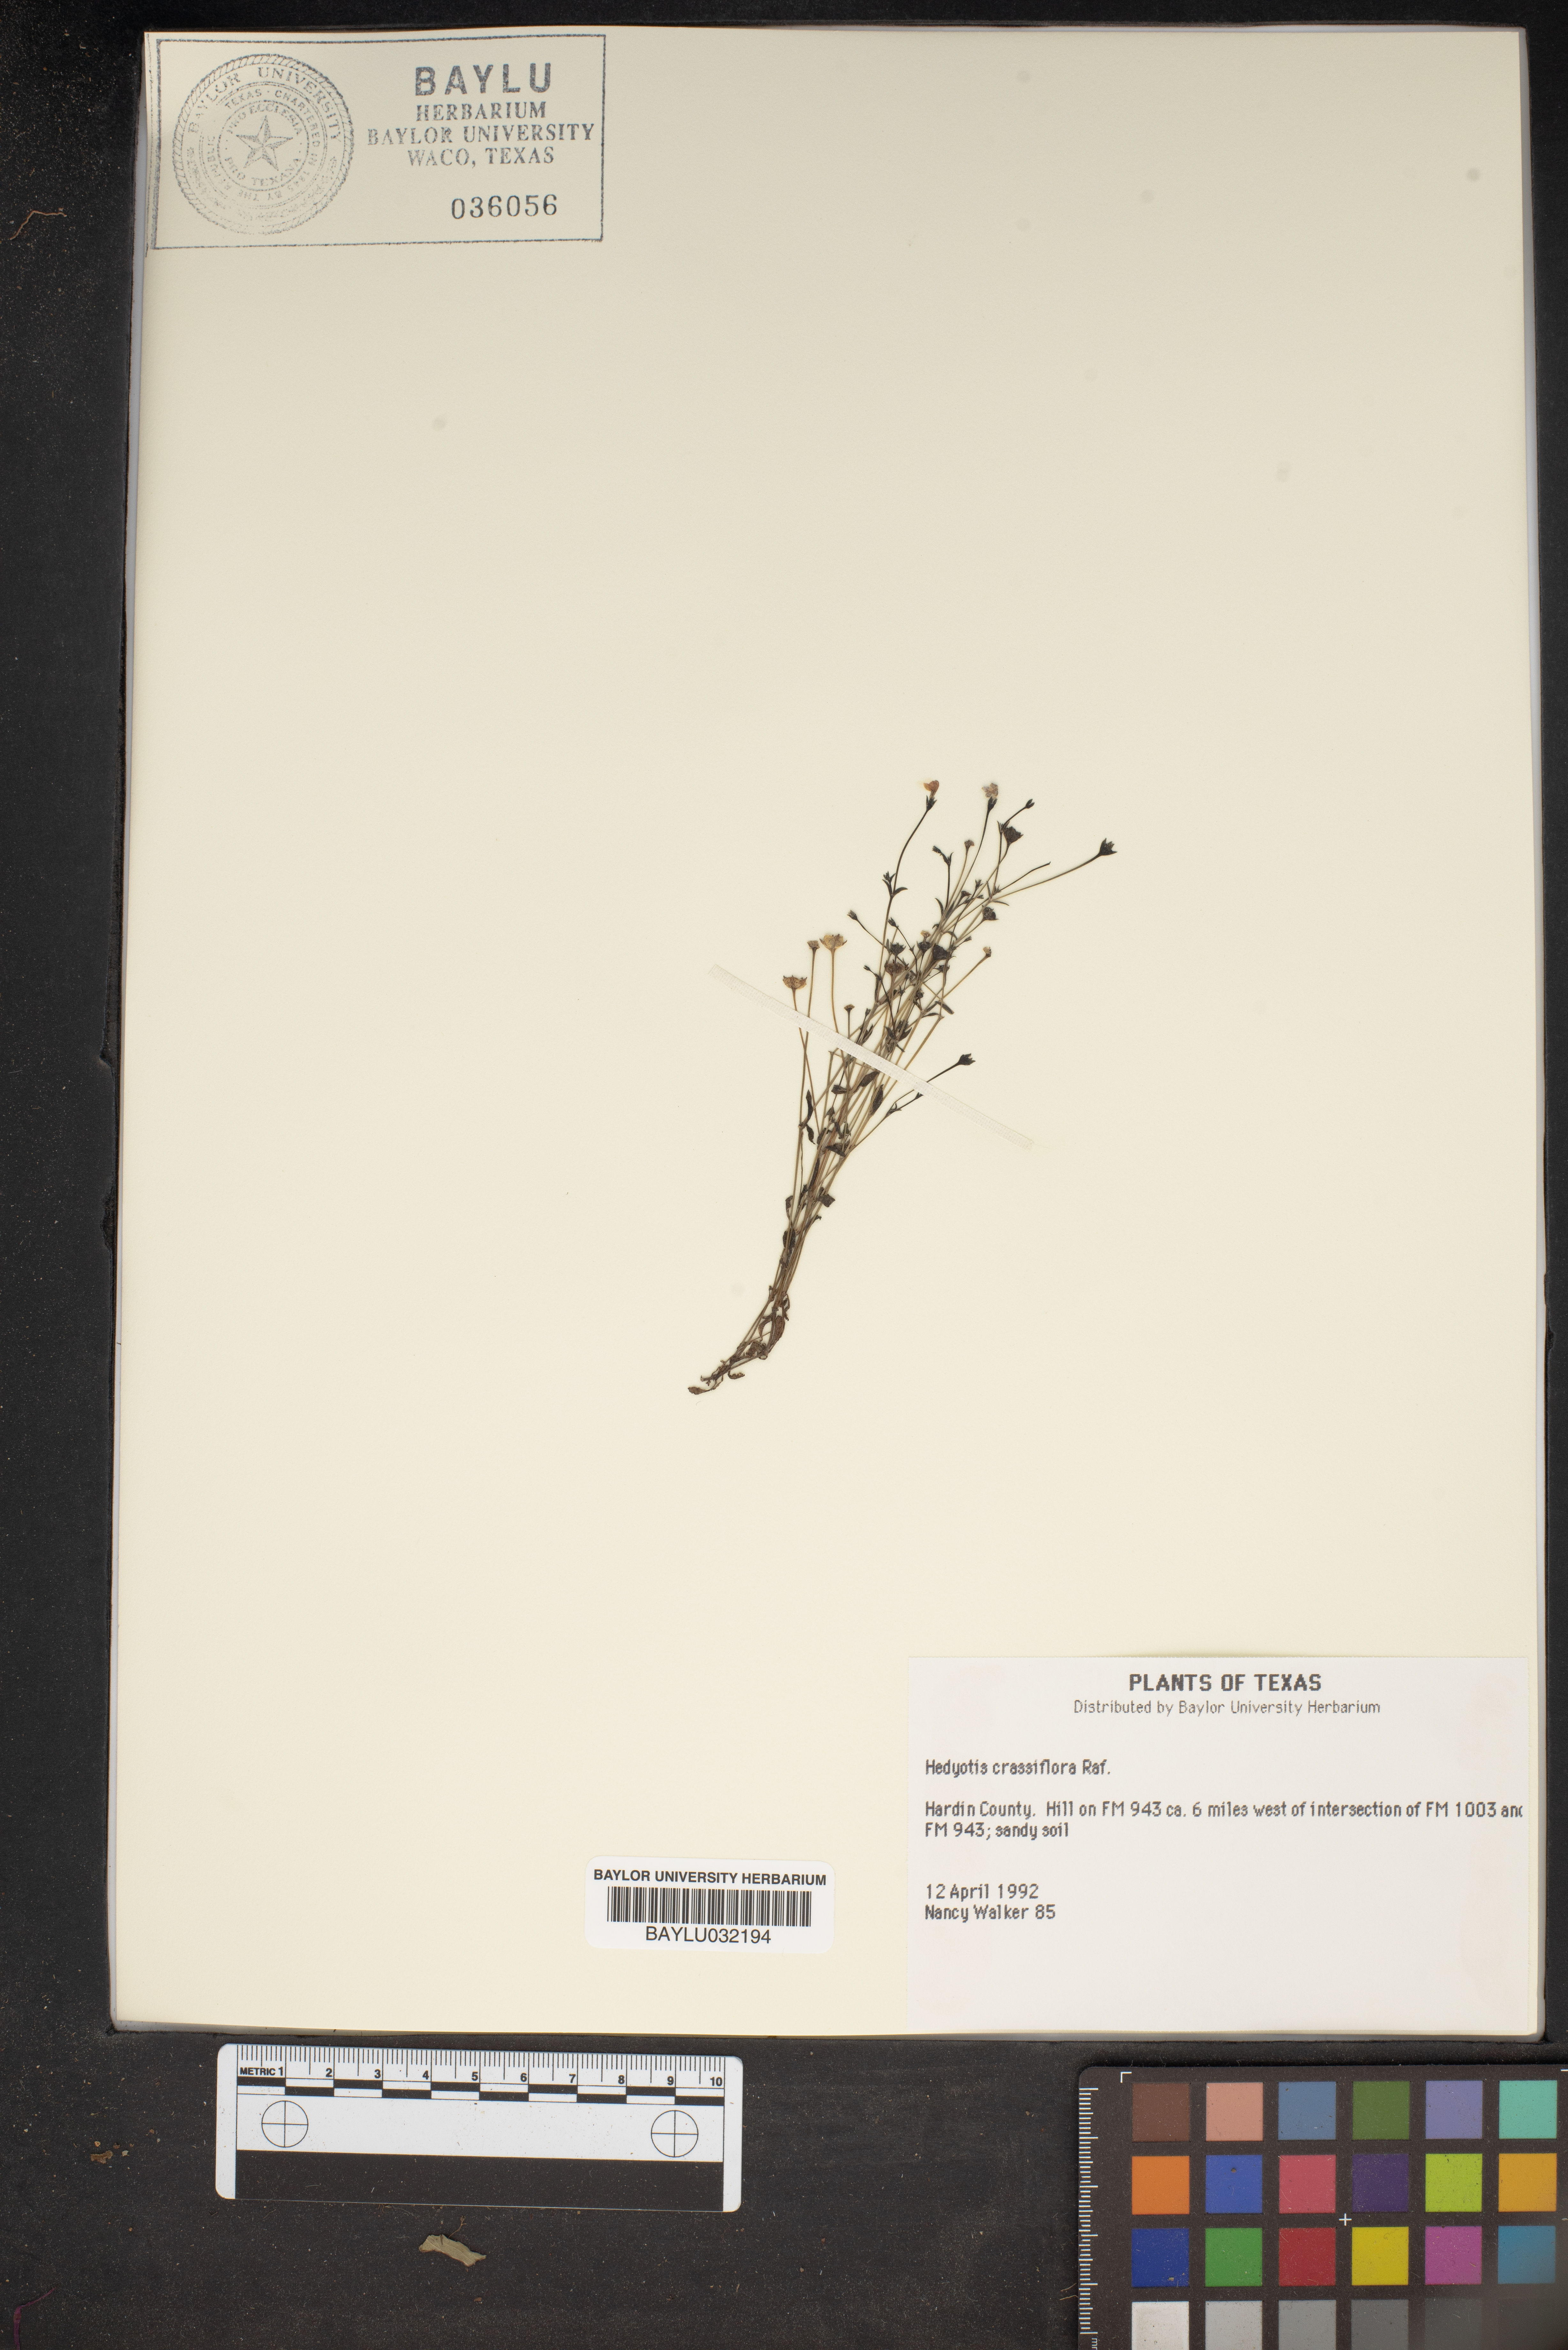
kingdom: Plantae
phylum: Tracheophyta
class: Magnoliopsida
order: Gentianales
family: Rubiaceae
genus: Houstonia
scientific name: Houstonia pusilla
